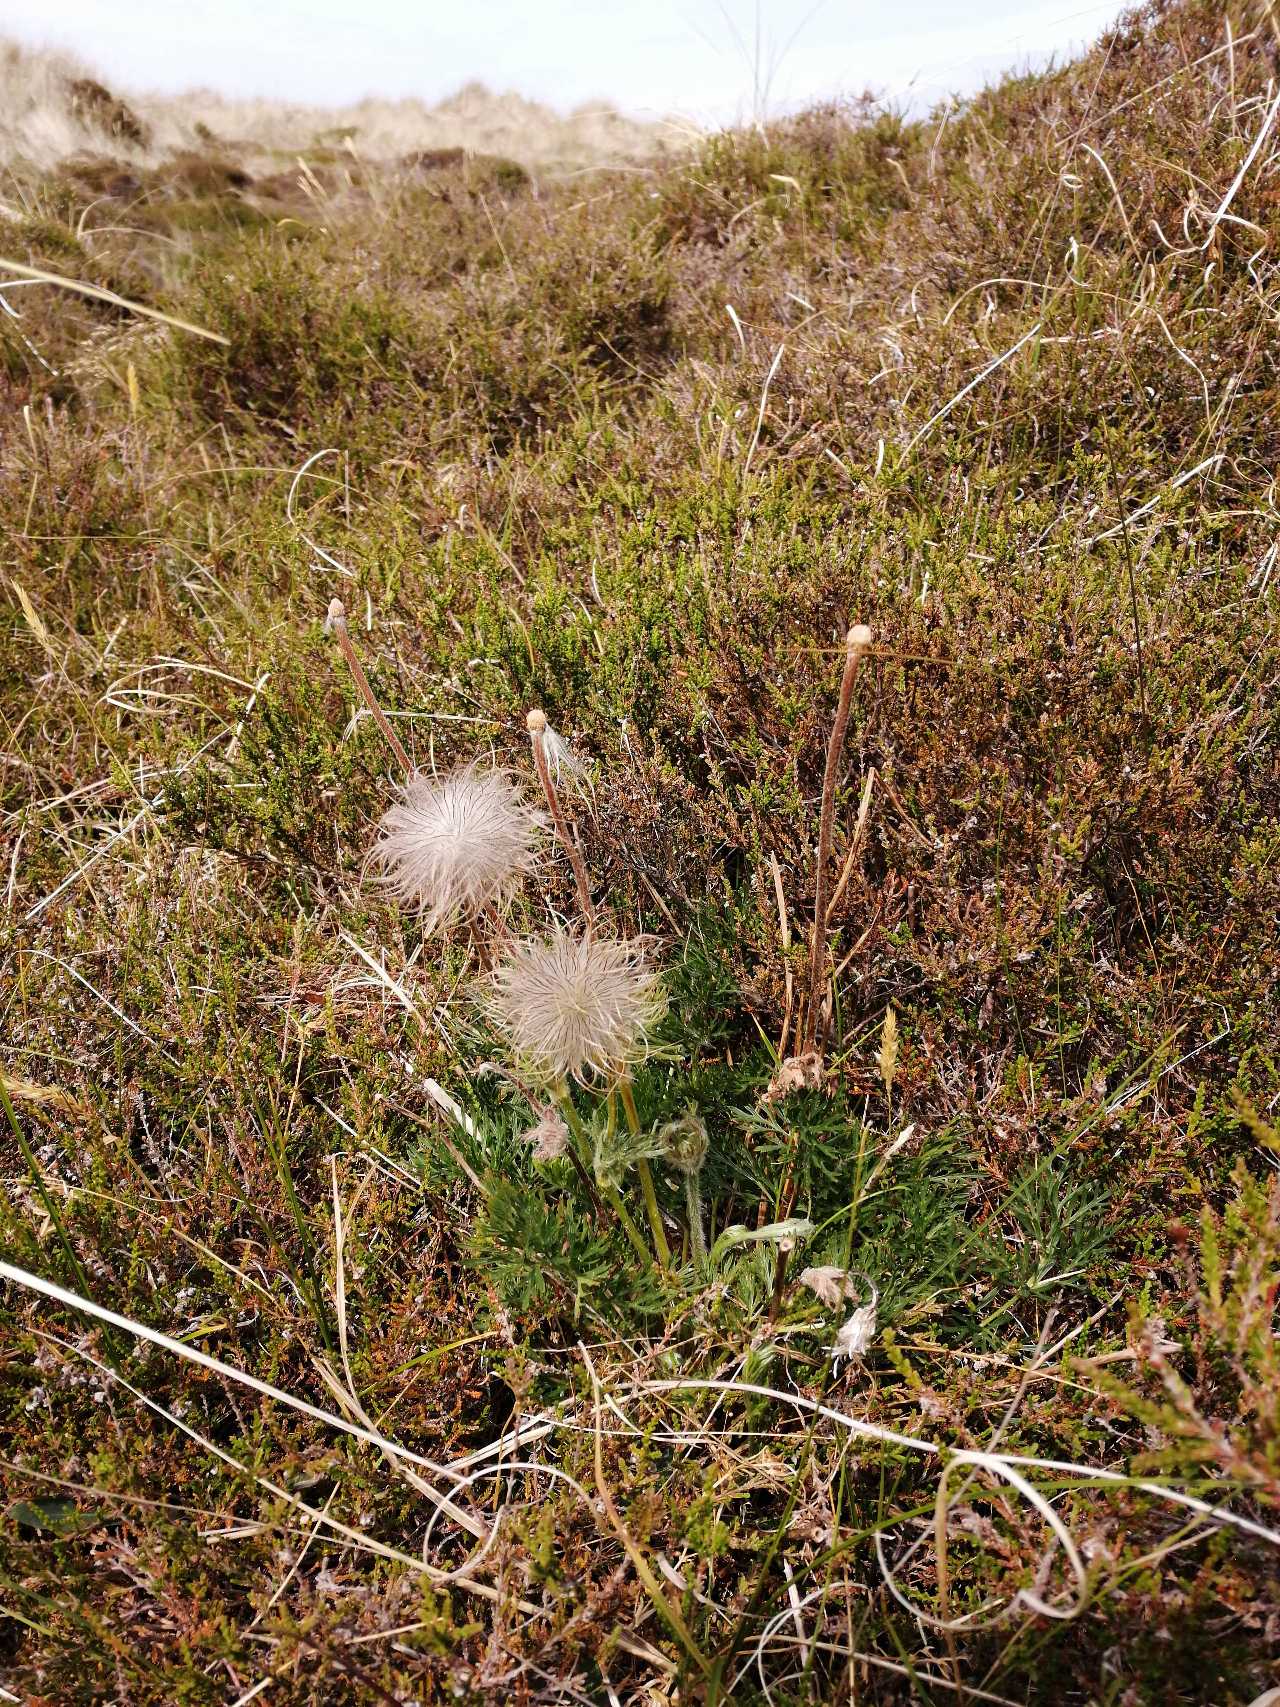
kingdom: Plantae
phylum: Tracheophyta
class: Magnoliopsida
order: Ranunculales
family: Ranunculaceae
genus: Pulsatilla
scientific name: Pulsatilla pratensis
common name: Nikkende kobjælde
